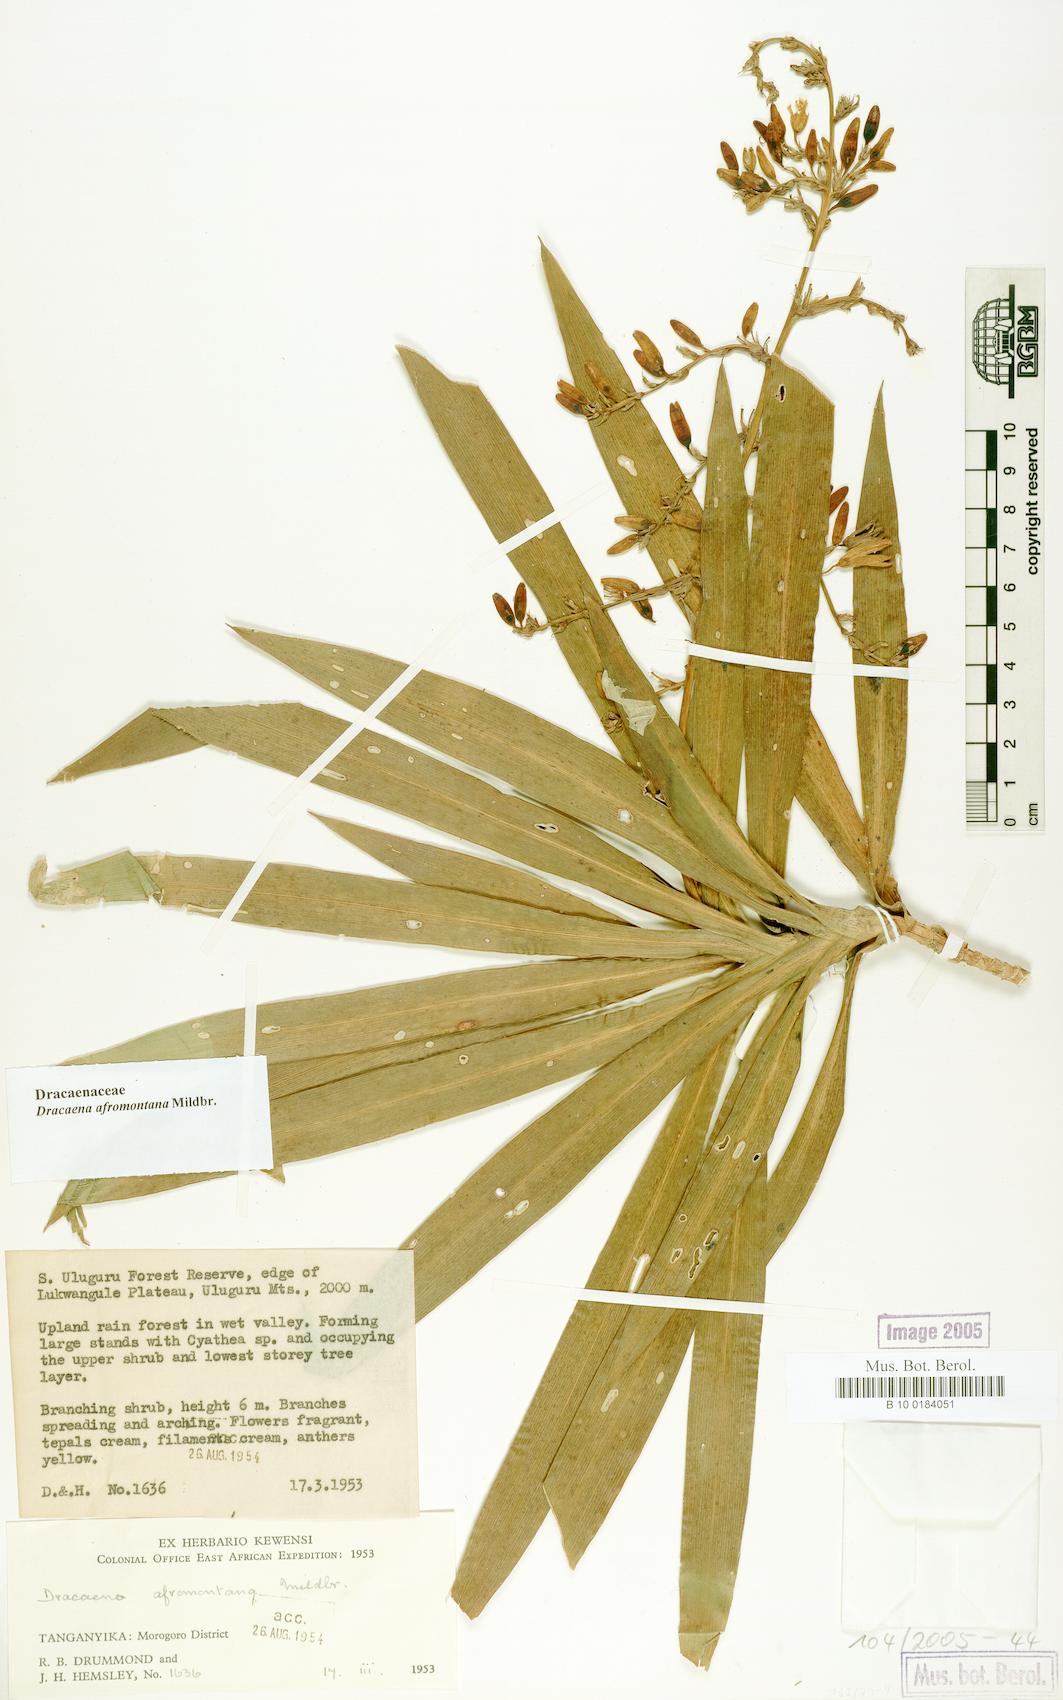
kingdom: Plantae
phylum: Tracheophyta
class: Liliopsida
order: Asparagales
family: Asparagaceae
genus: Dracaena
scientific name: Dracaena afromontana
